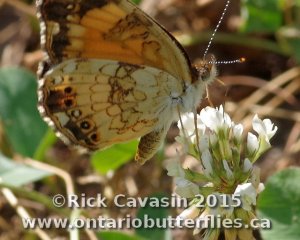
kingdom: Animalia
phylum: Arthropoda
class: Insecta
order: Lepidoptera
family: Nymphalidae
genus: Chlosyne
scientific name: Chlosyne nycteis
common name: Silvery Checkerspot
